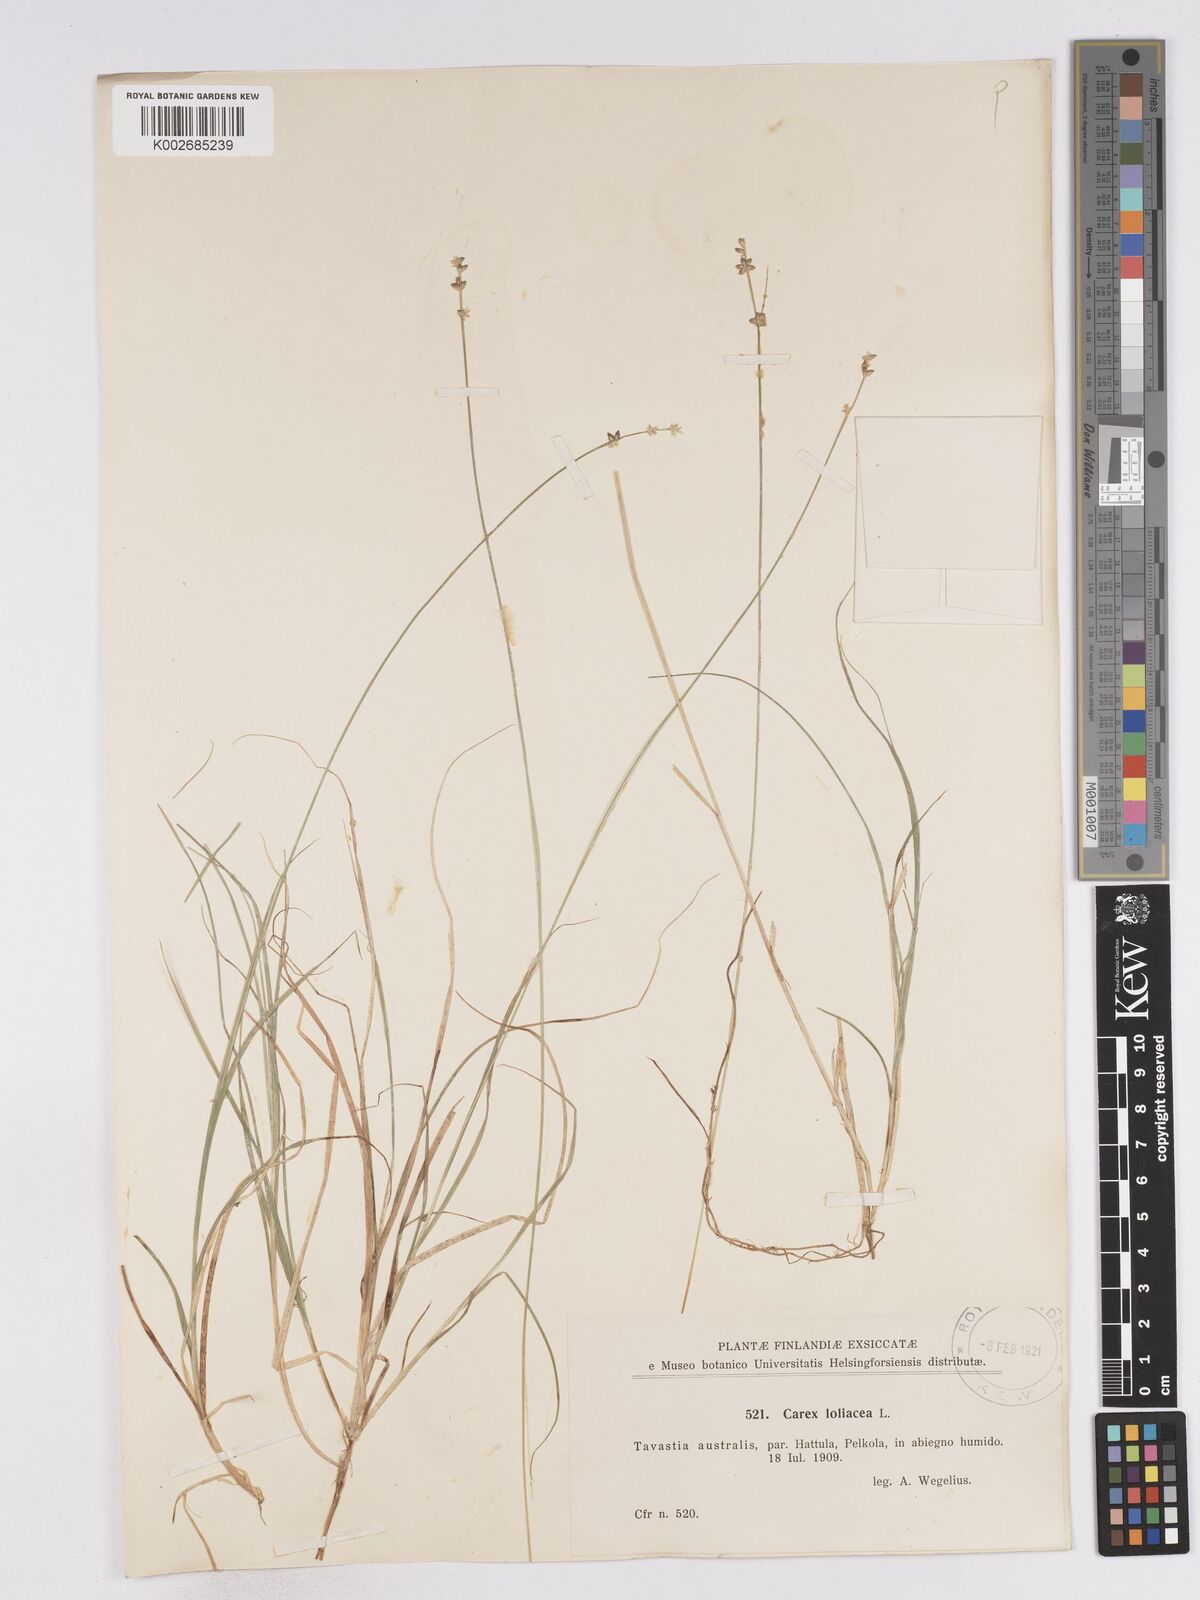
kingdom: Plantae
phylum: Tracheophyta
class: Liliopsida
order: Poales
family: Cyperaceae
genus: Carex
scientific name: Carex loliacea
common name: Ryegrass sedge
